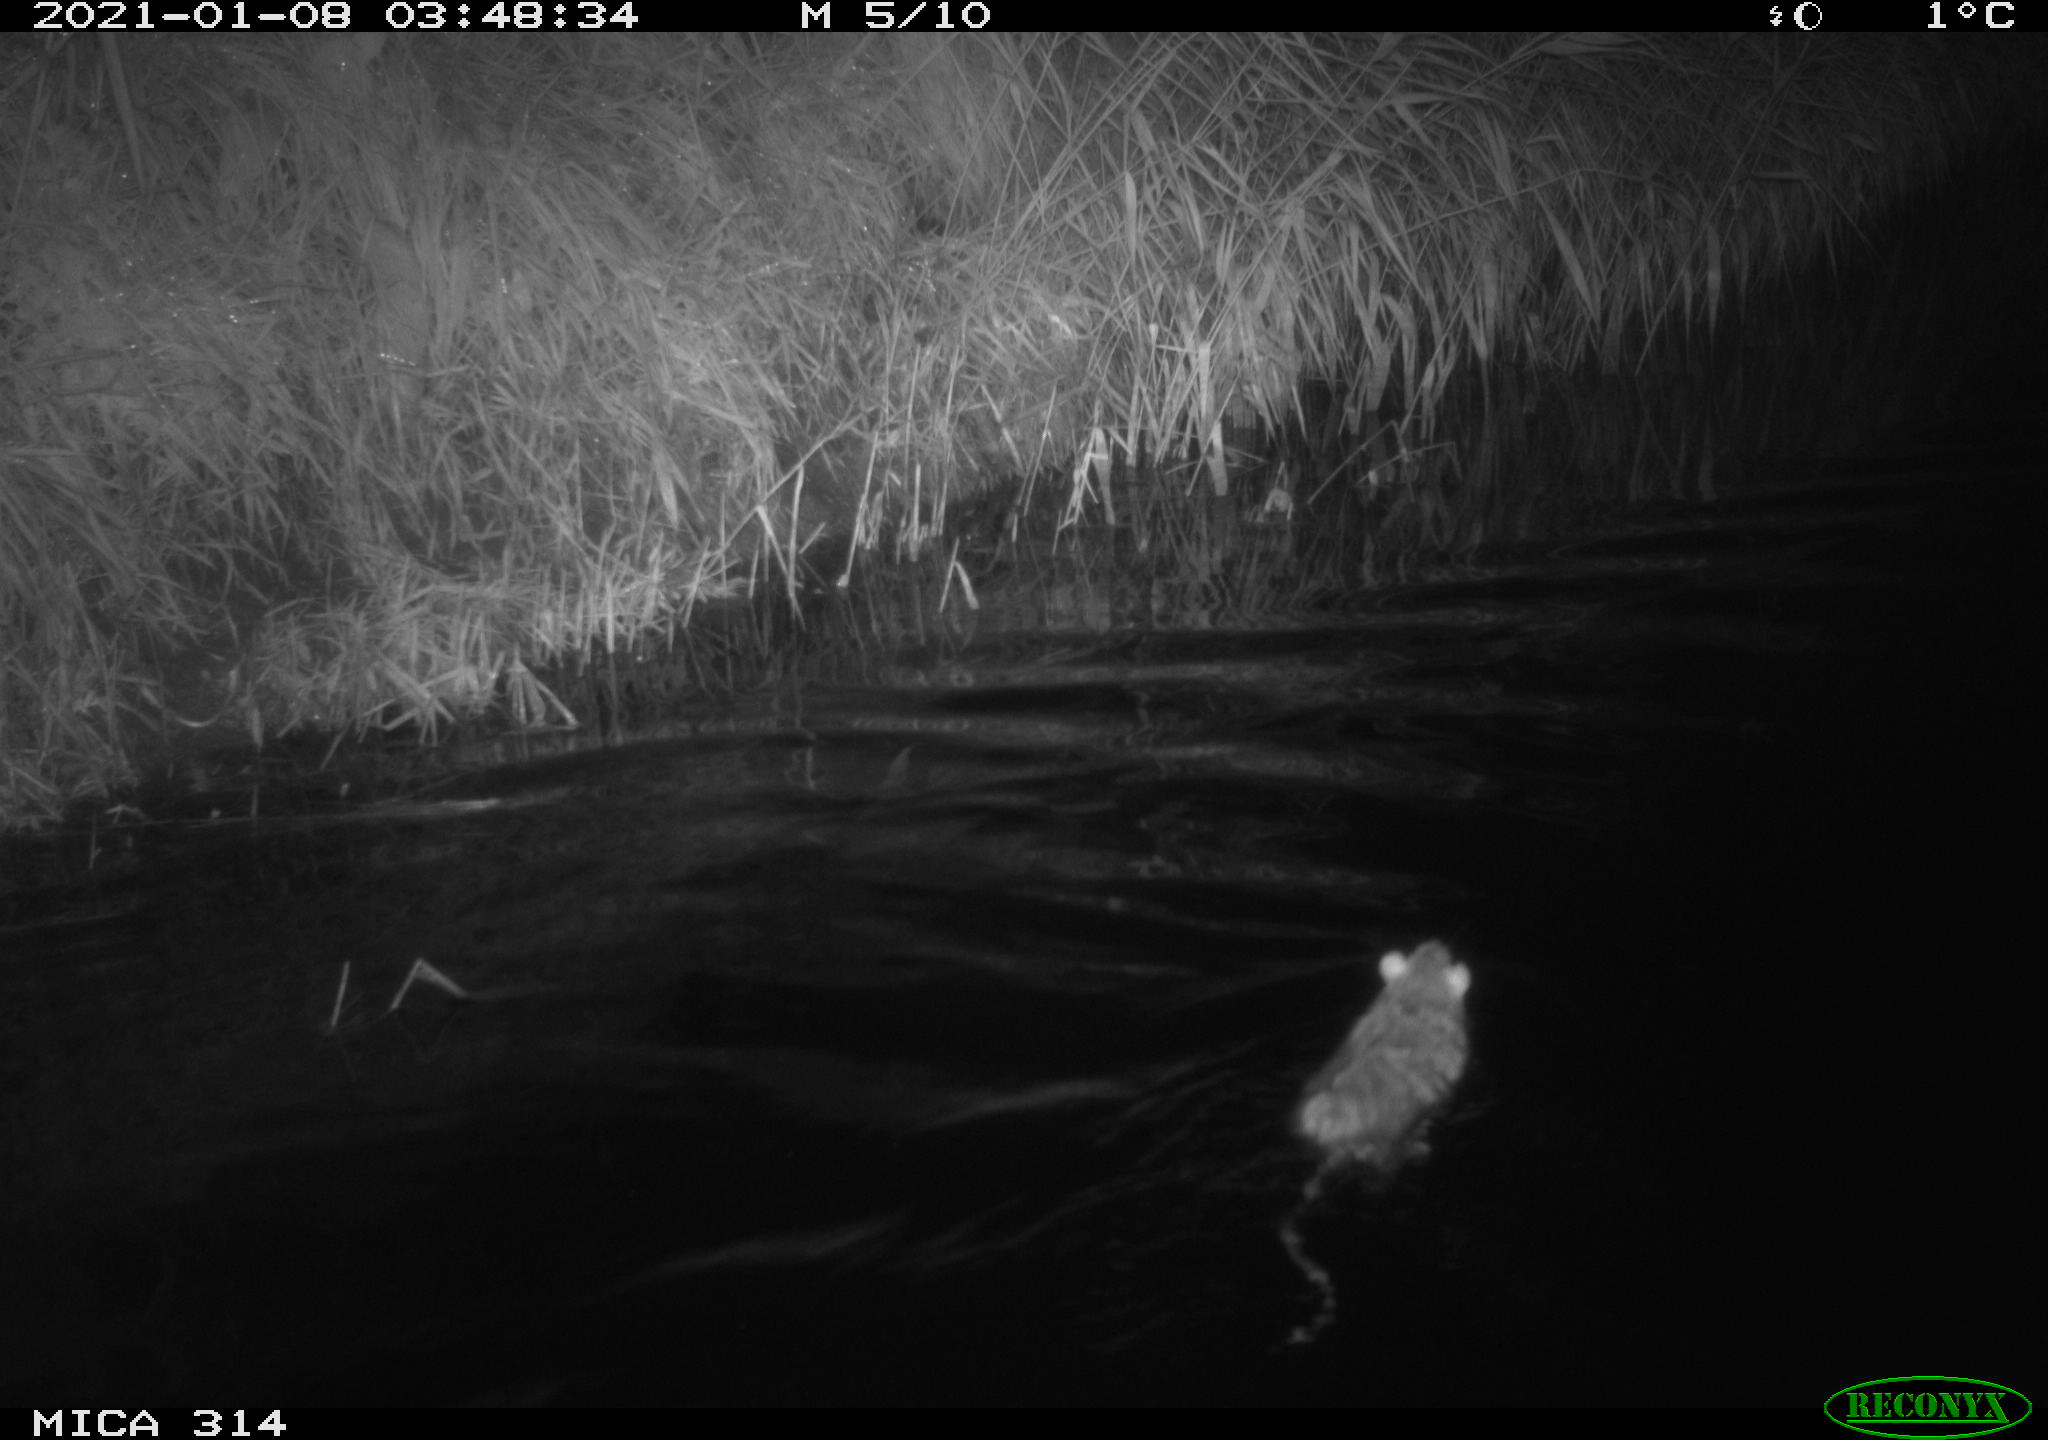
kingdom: Animalia
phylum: Chordata
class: Mammalia
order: Rodentia
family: Muridae
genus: Rattus
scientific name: Rattus norvegicus
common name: Brown rat
